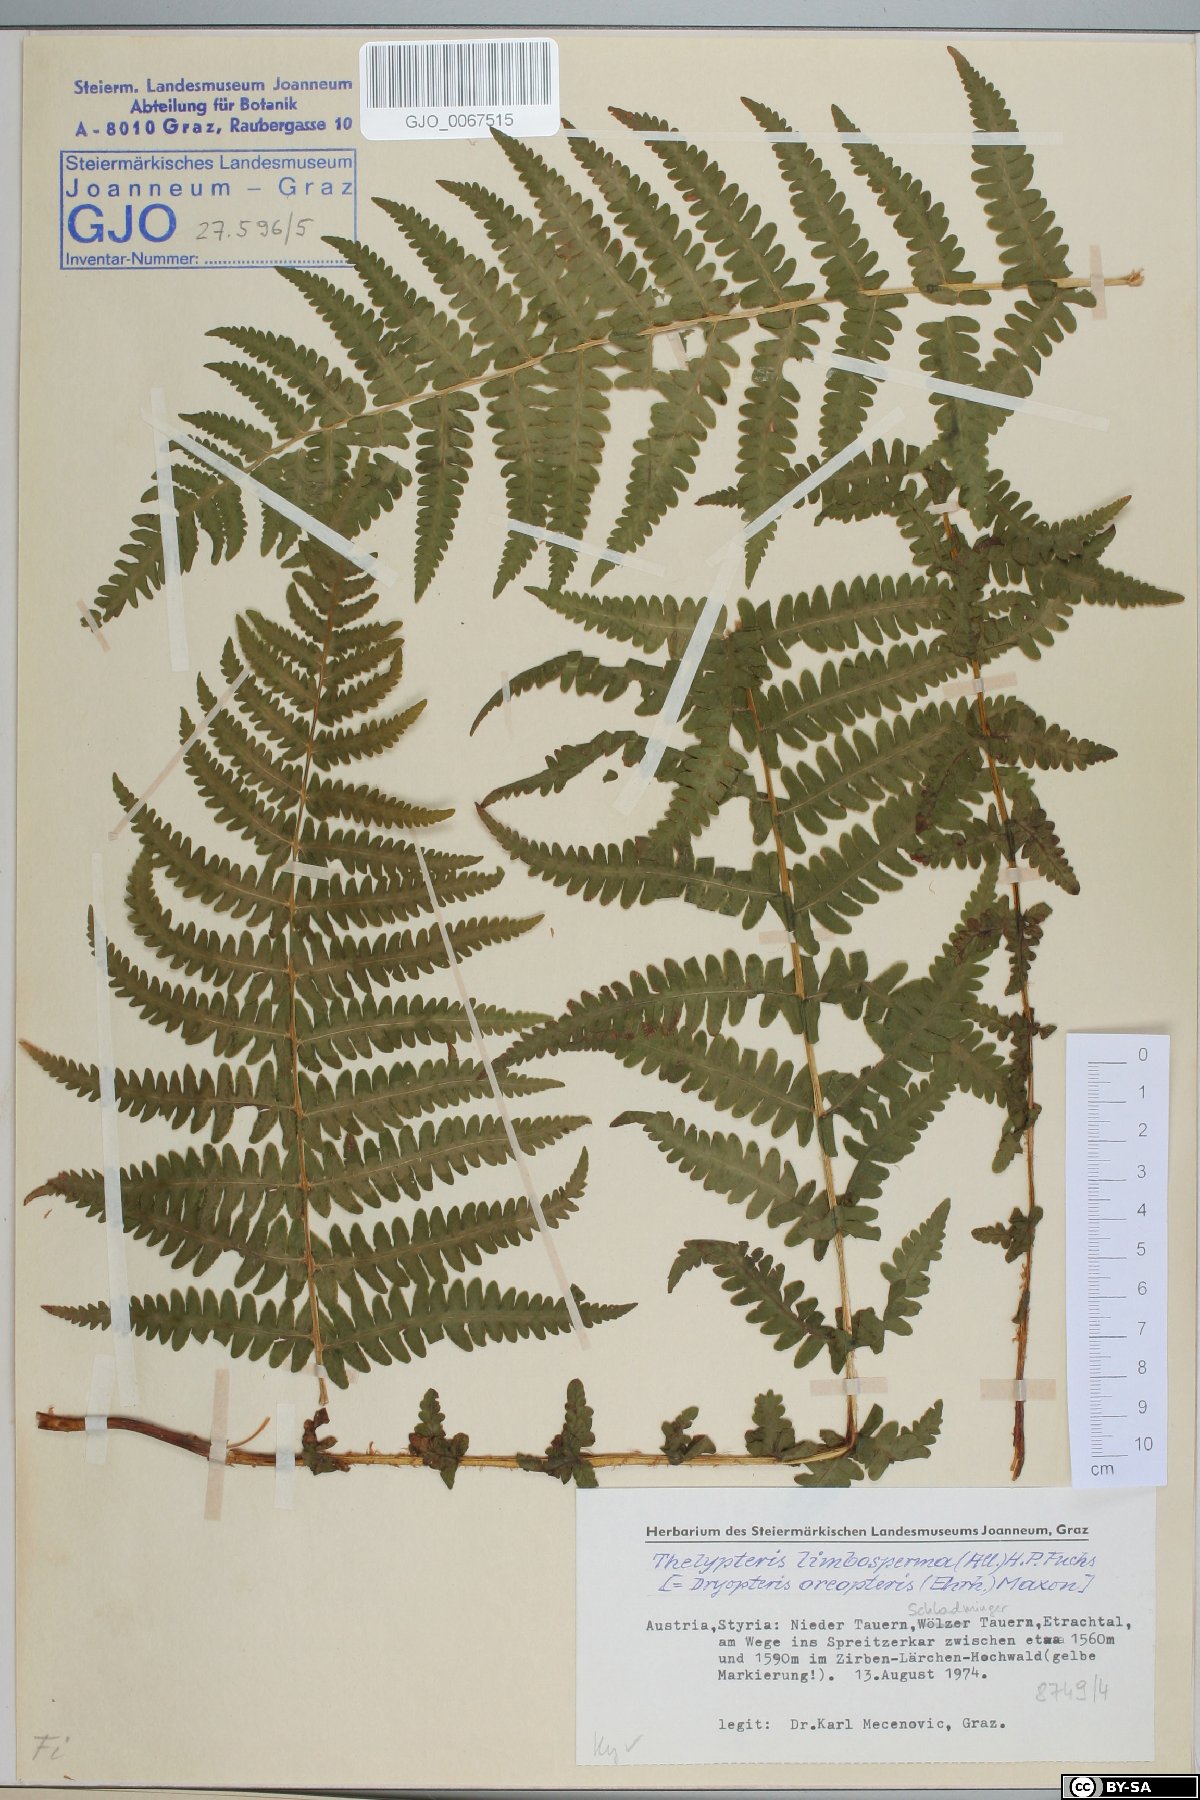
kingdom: Plantae
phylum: Tracheophyta
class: Polypodiopsida
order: Polypodiales
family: Thelypteridaceae
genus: Oreopteris
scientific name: Oreopteris limbosperma
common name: Lemon-scented fern
